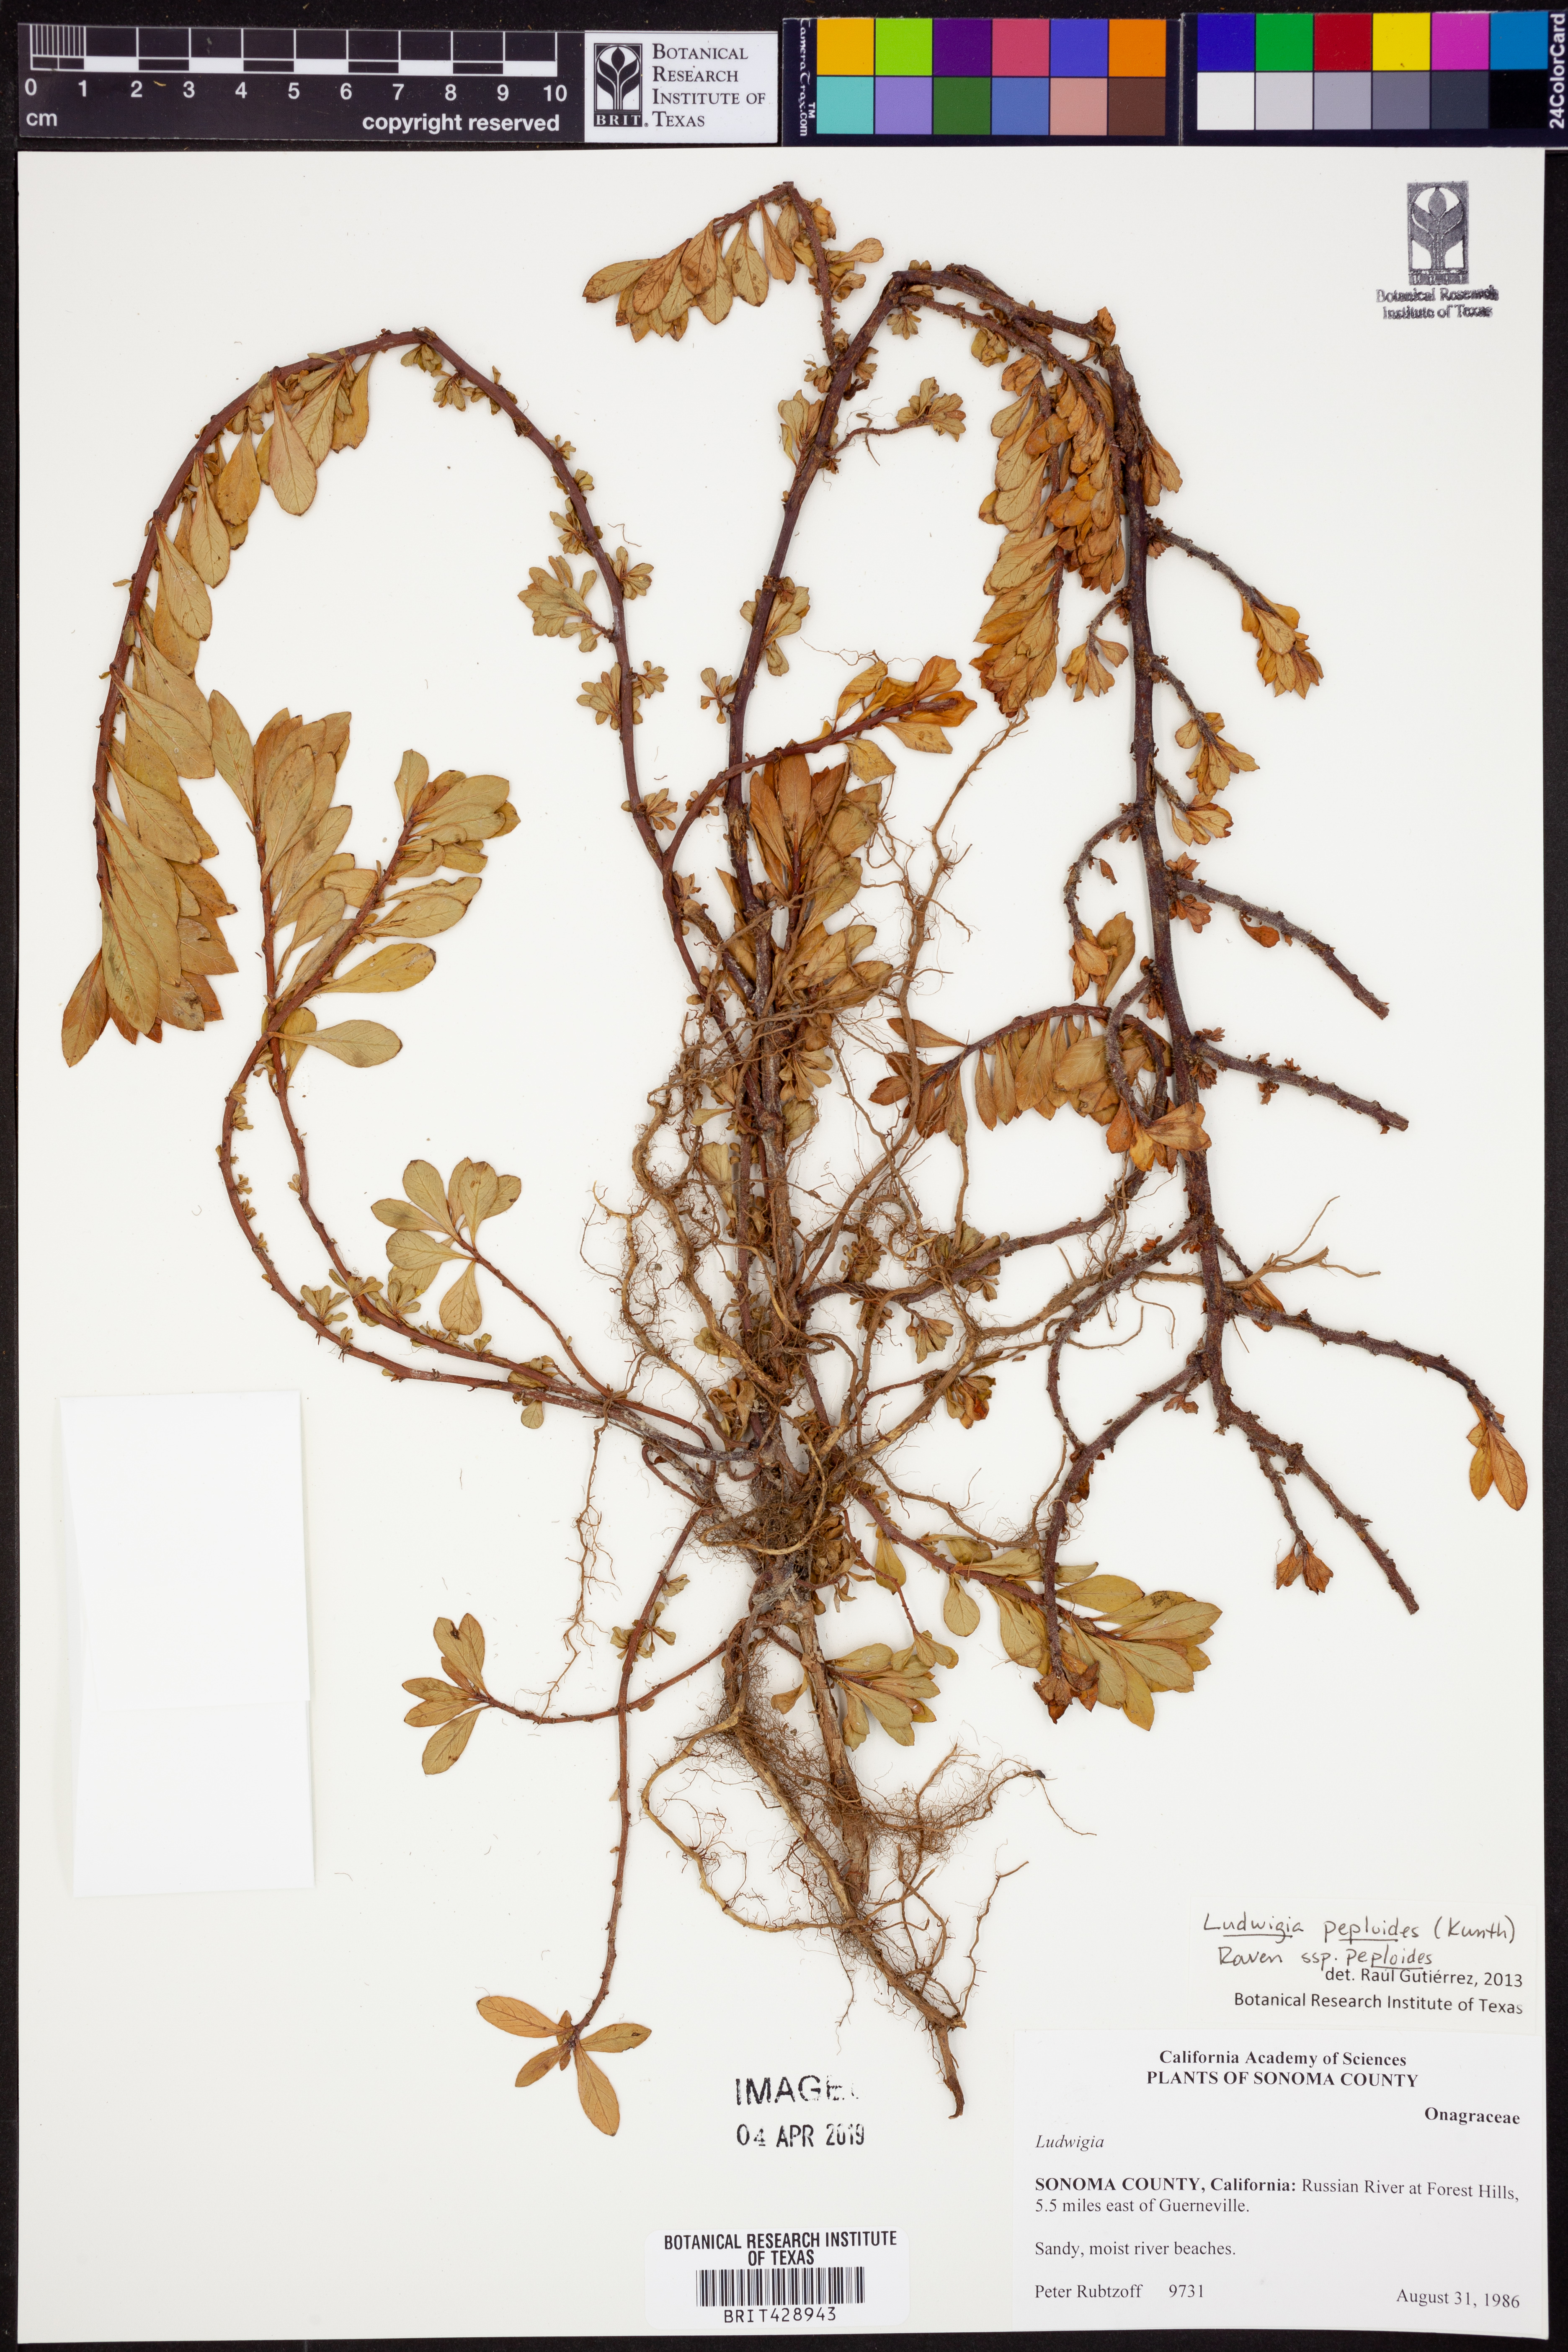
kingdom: Plantae
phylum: Tracheophyta
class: Magnoliopsida
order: Myrtales
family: Onagraceae
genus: Ludwigia
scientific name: Ludwigia peploides
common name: Floating primrose-willow
